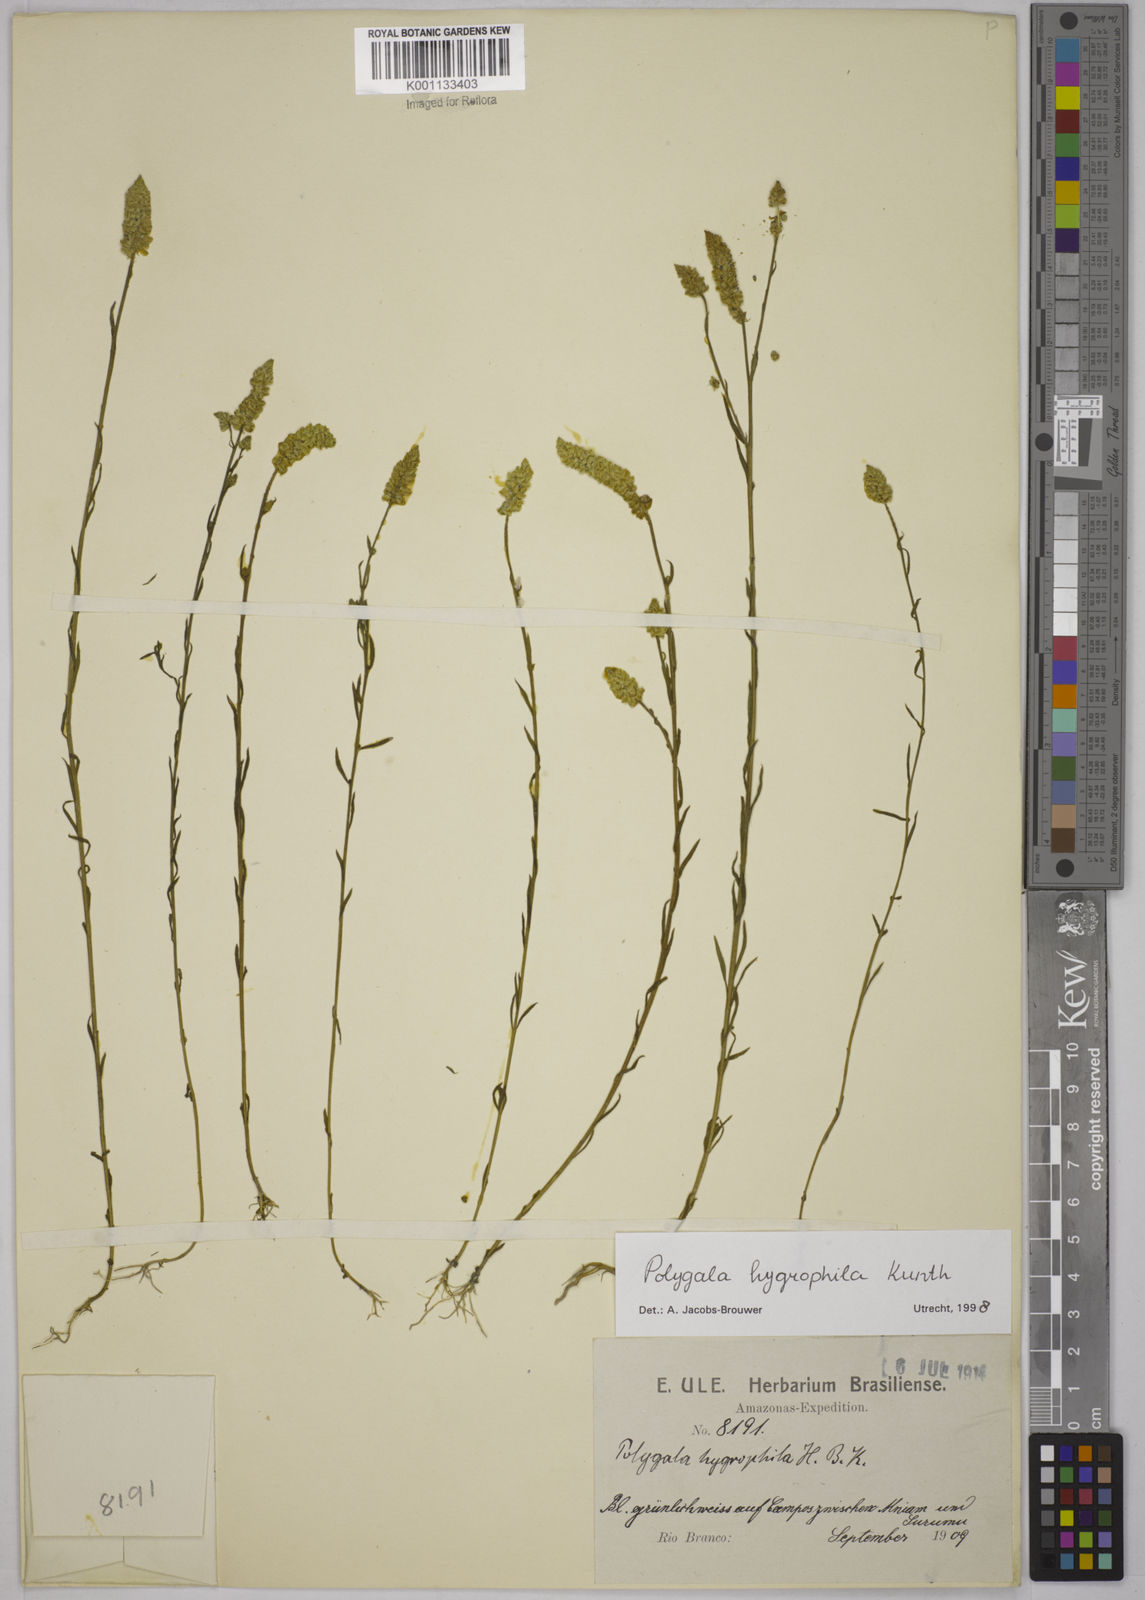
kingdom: Plantae
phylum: Tracheophyta
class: Magnoliopsida
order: Fabales
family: Polygalaceae
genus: Polygala
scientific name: Polygala hygrophila
